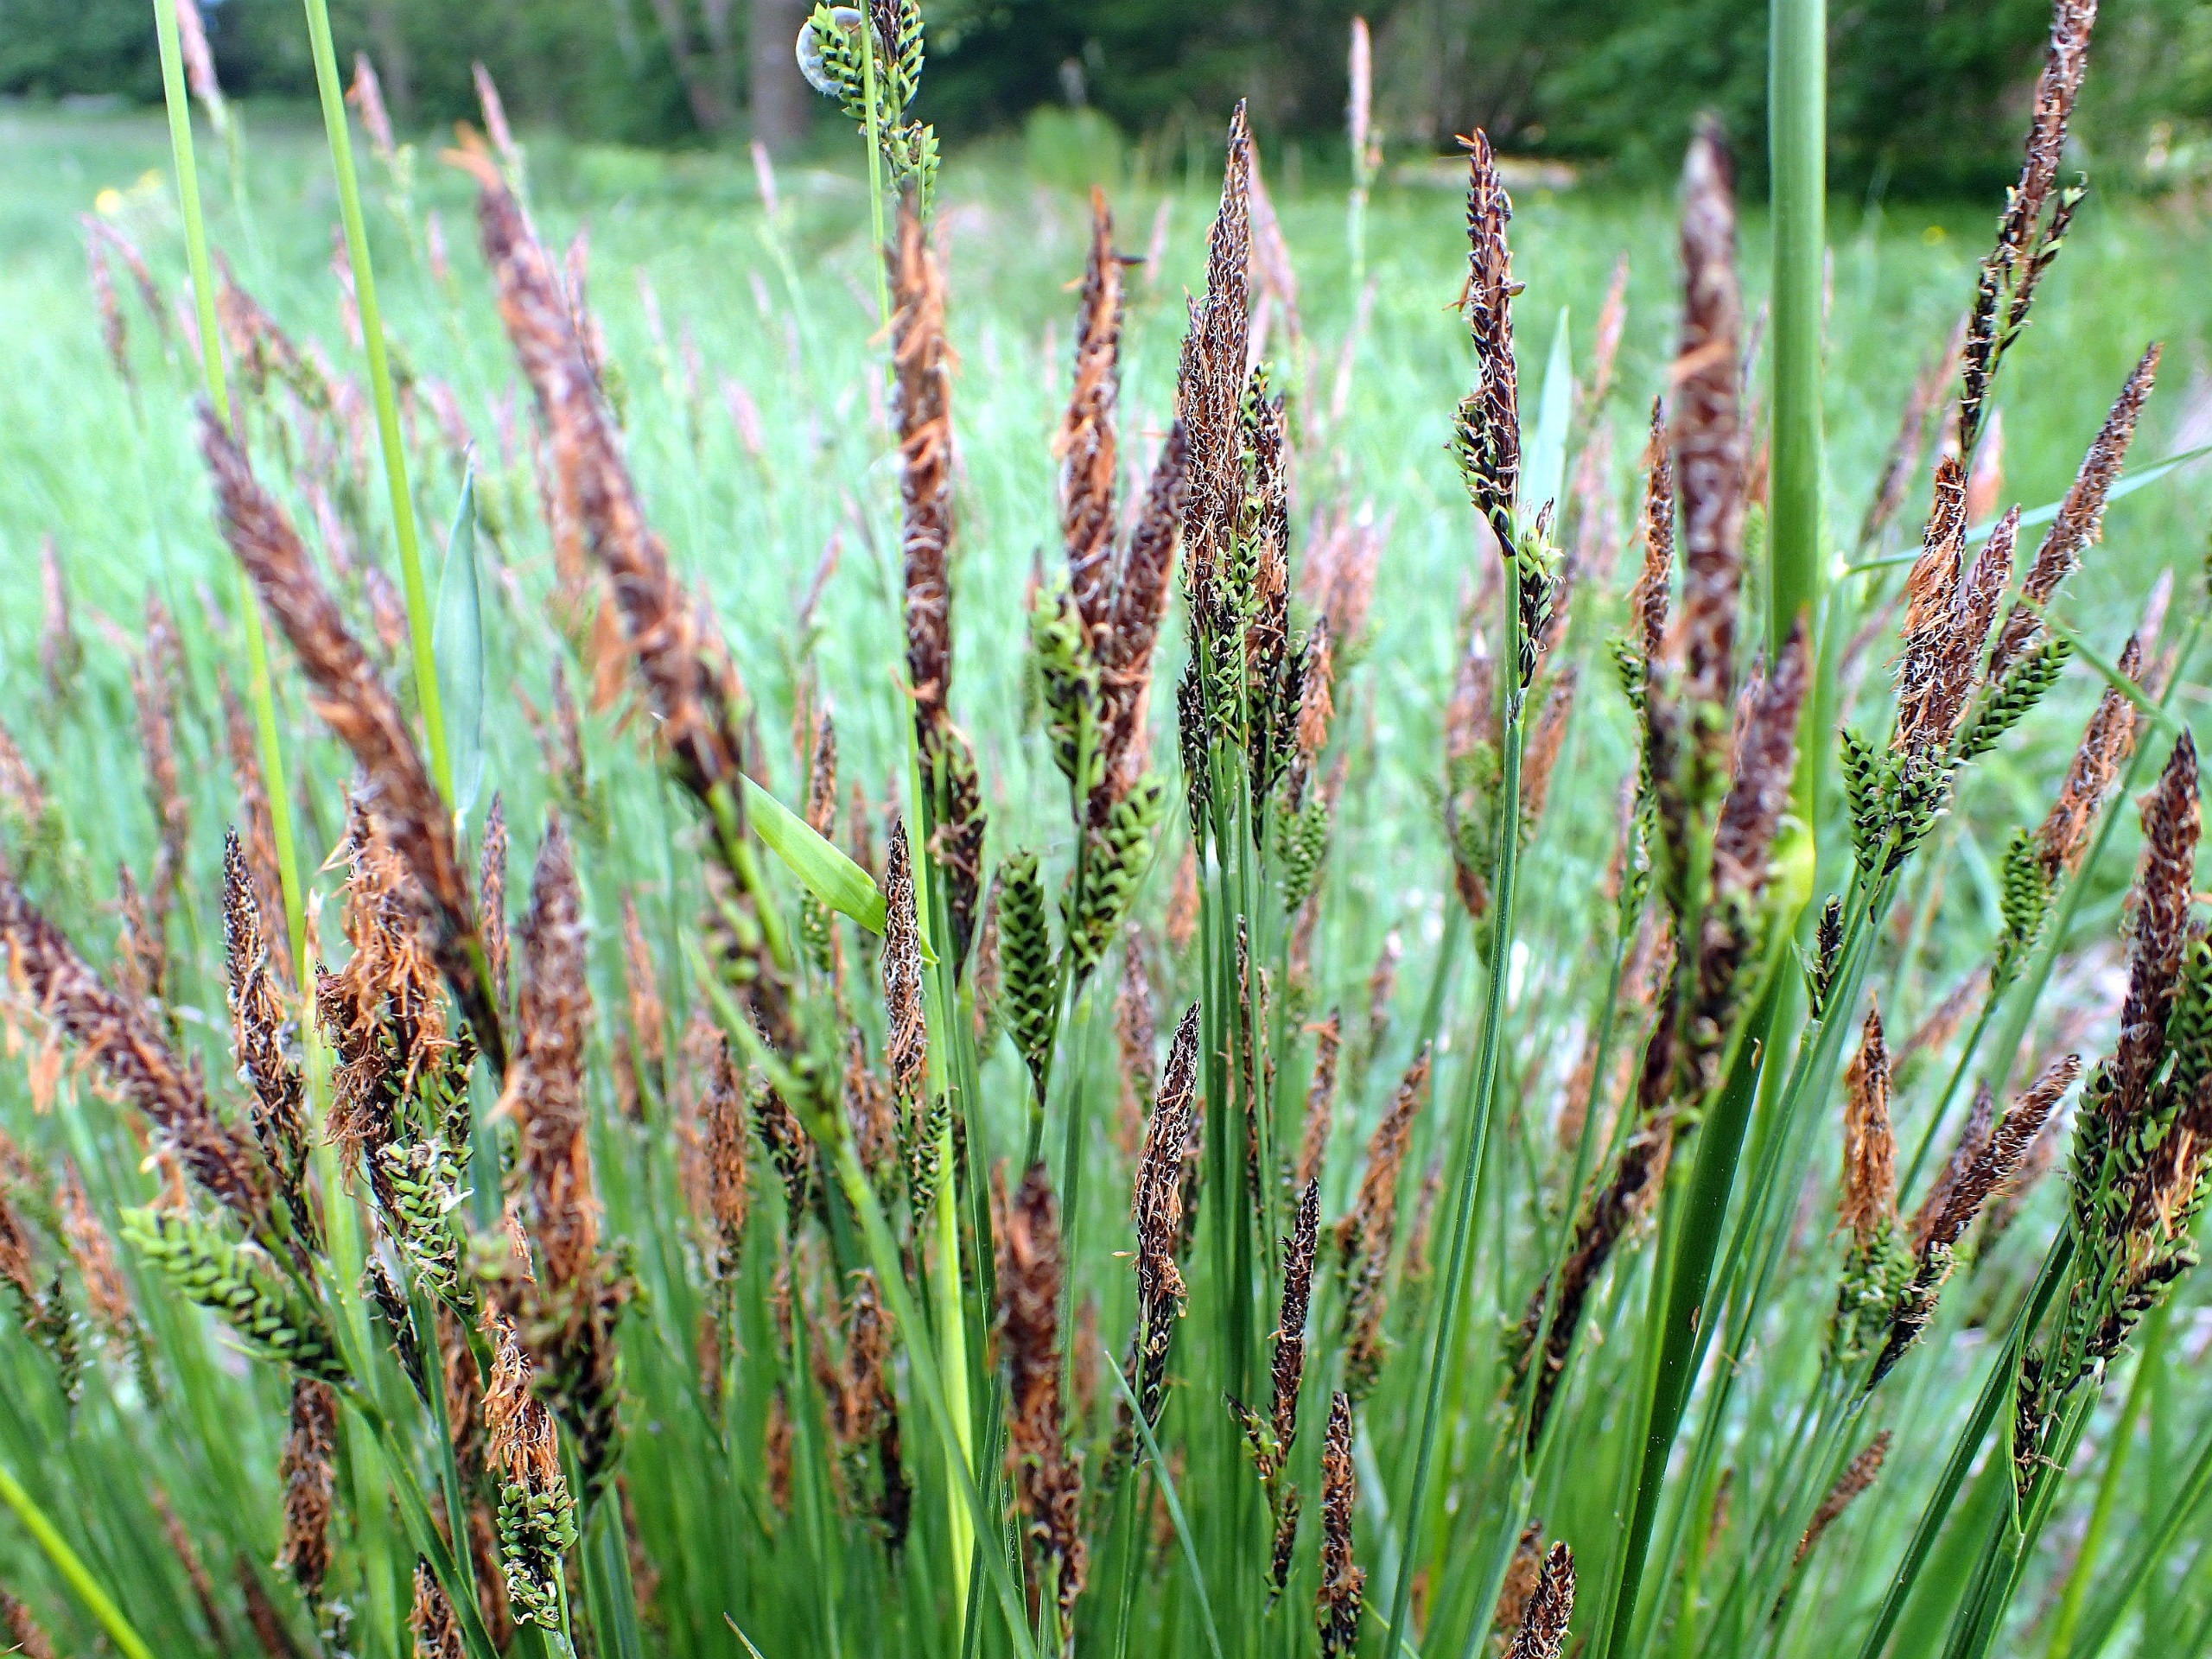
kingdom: Plantae
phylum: Tracheophyta
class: Liliopsida
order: Poales
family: Cyperaceae
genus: Carex
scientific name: Carex cespitosa
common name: Tue-star
